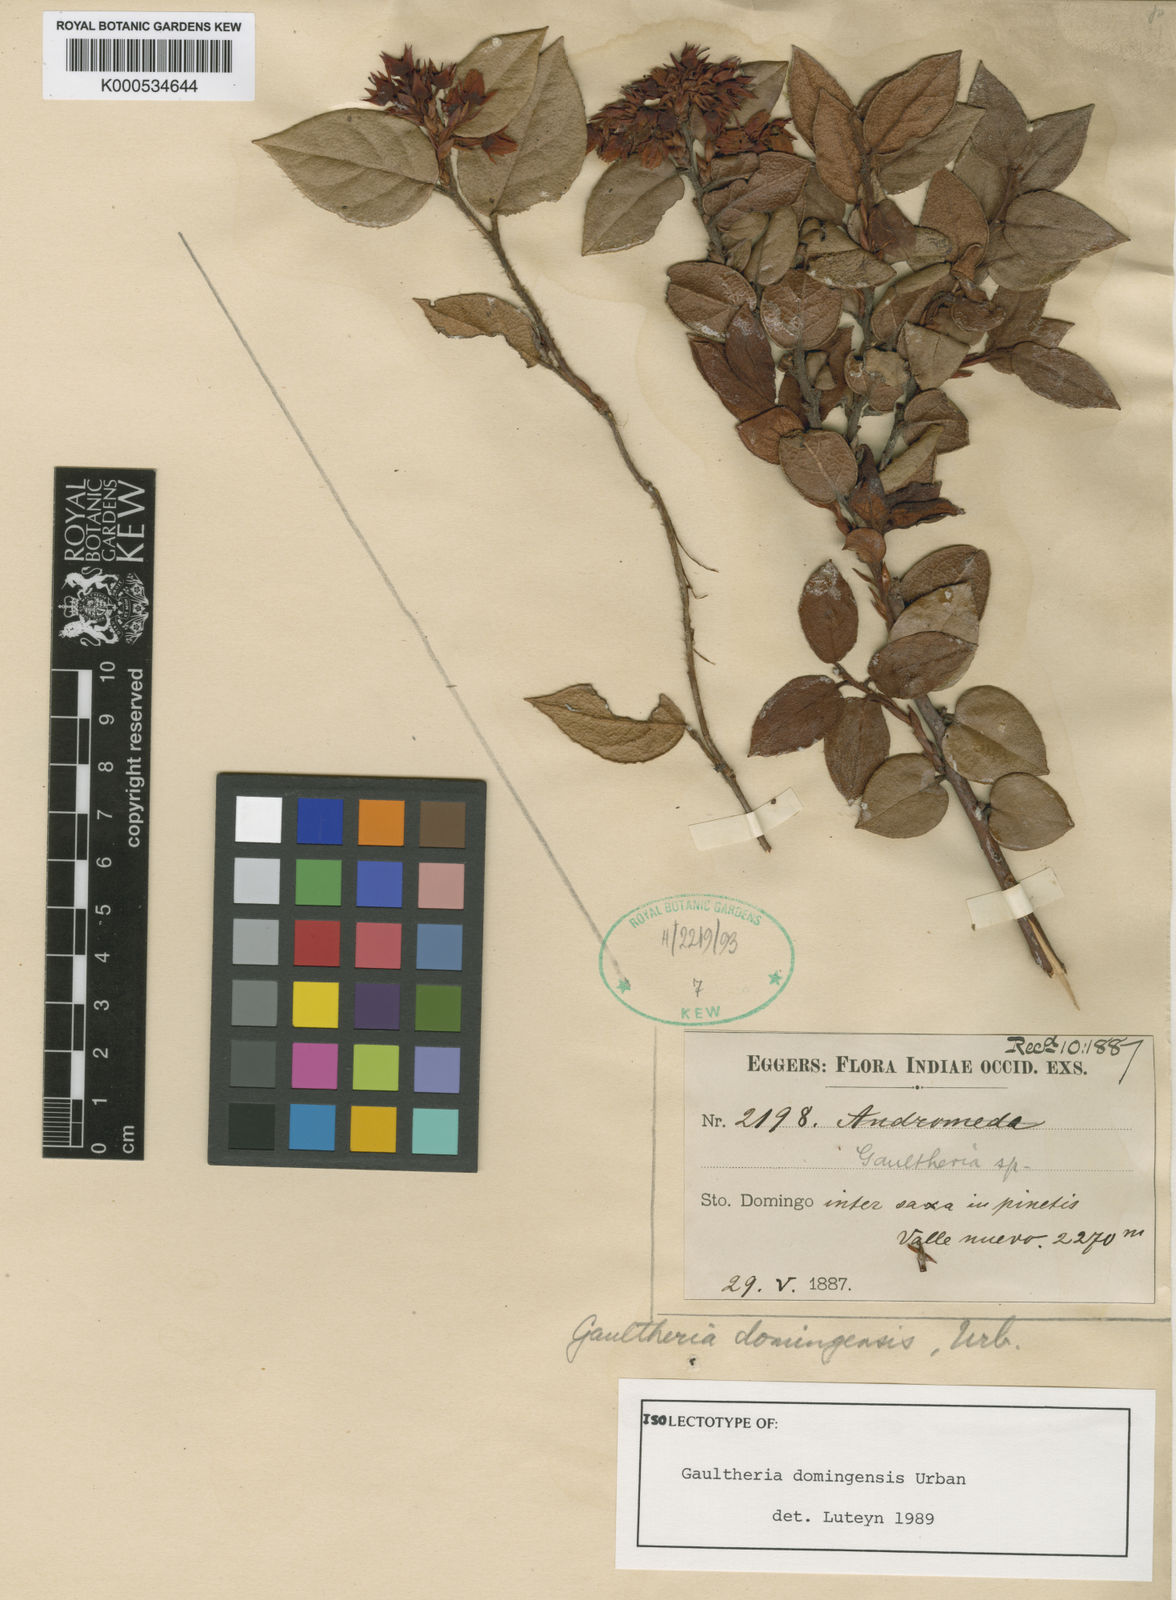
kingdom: Plantae
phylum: Tracheophyta
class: Magnoliopsida
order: Ericales
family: Ericaceae
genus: Vaccinium
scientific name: Vaccinium
